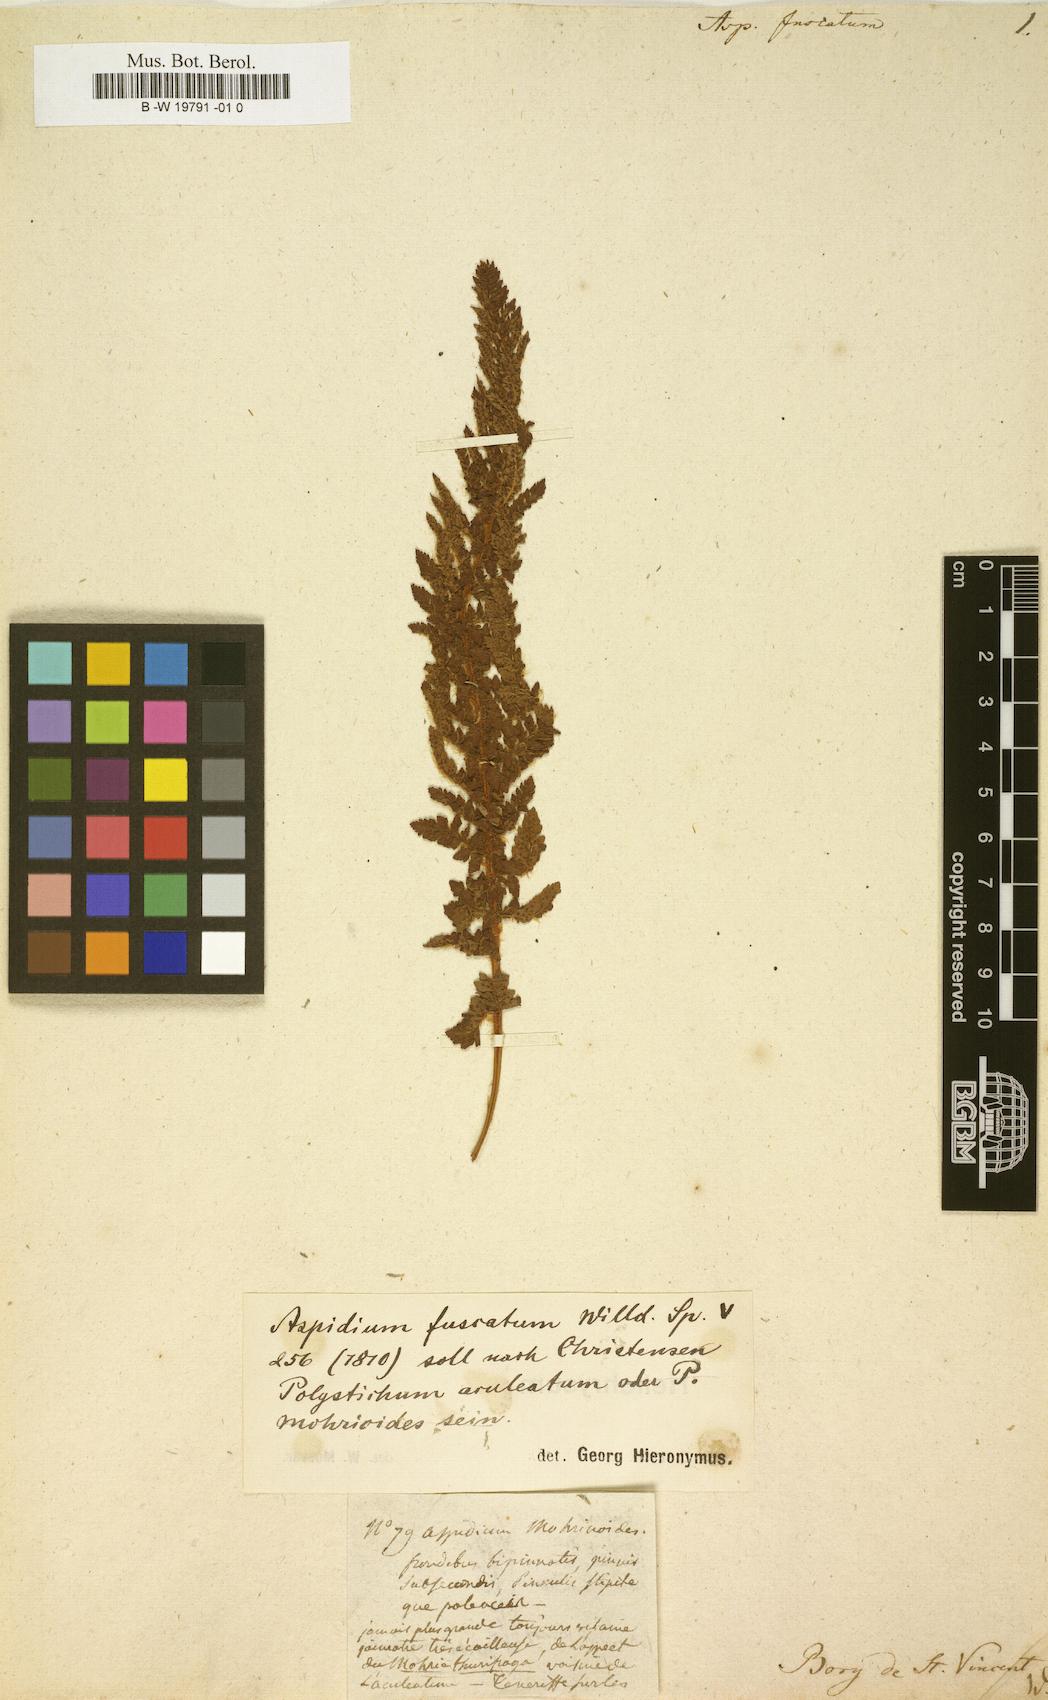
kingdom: Plantae
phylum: Tracheophyta
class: Polypodiopsida
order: Polypodiales
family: Dryopteridaceae
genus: Polystichum
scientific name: Polystichum plicatum
